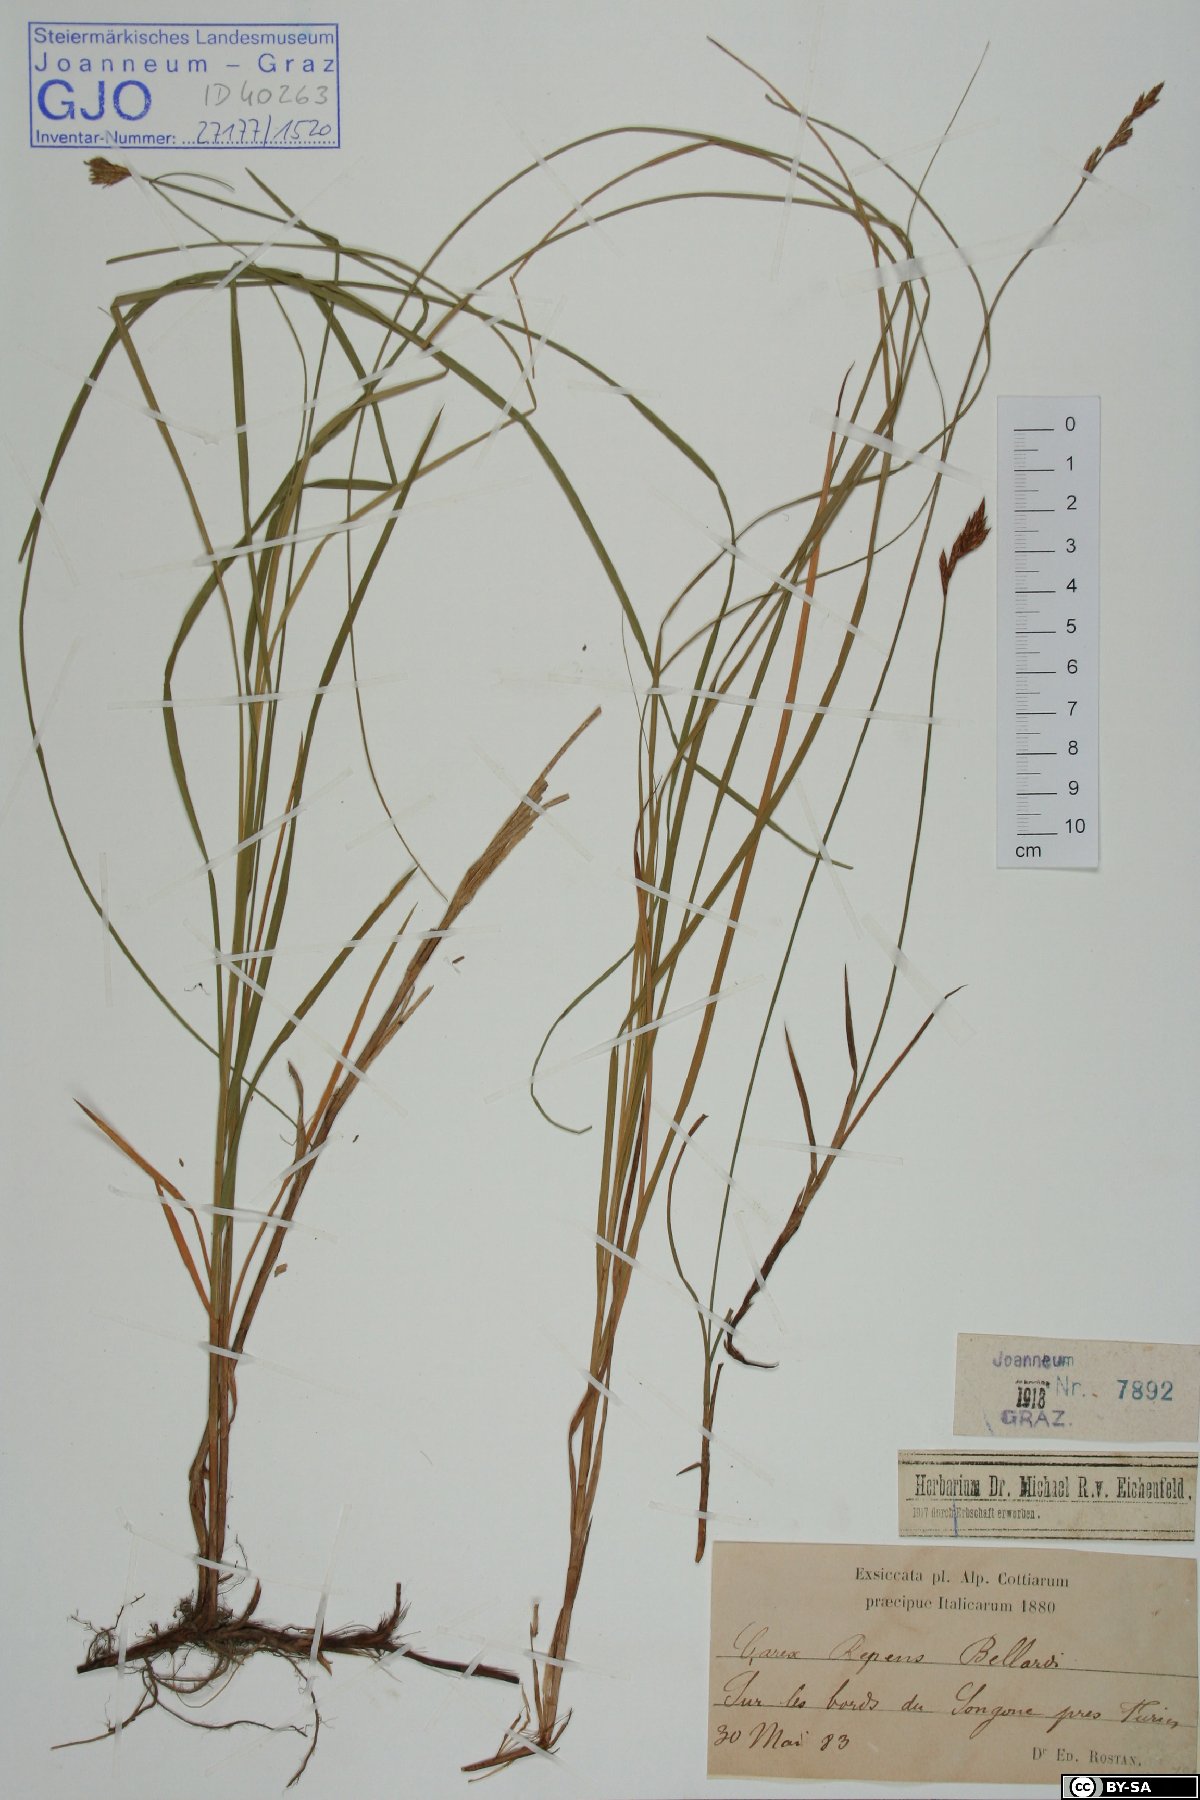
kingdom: Plantae
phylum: Tracheophyta
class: Liliopsida
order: Poales
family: Cyperaceae
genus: Carex
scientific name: Carex repens
